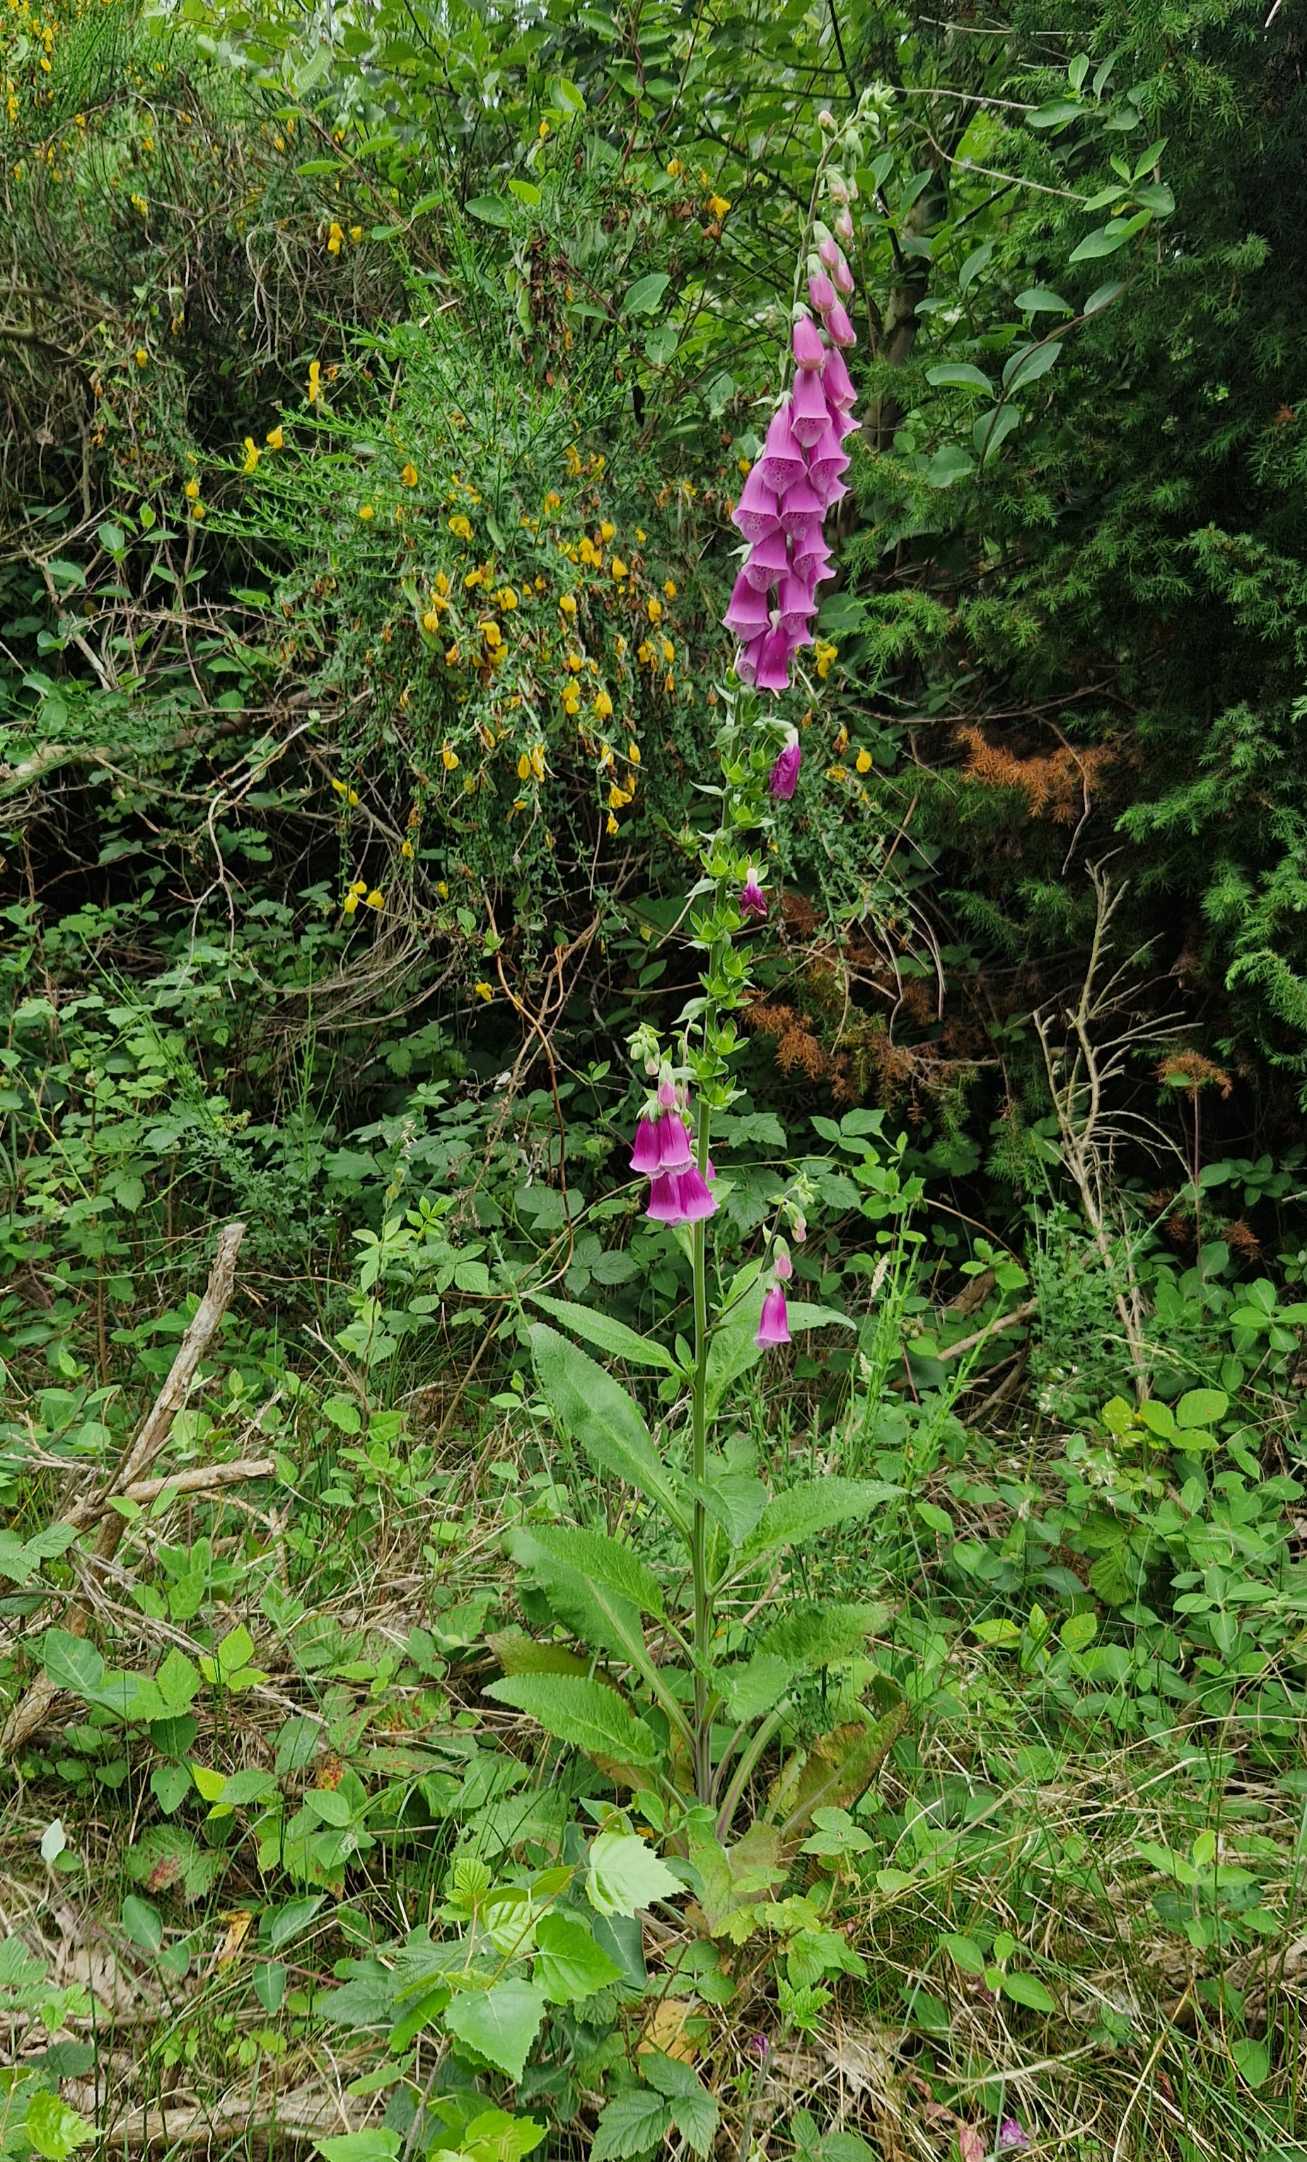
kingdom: Plantae
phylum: Tracheophyta
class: Magnoliopsida
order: Lamiales
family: Plantaginaceae
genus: Digitalis
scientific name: Digitalis purpurea
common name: Almindelig fingerbøl
